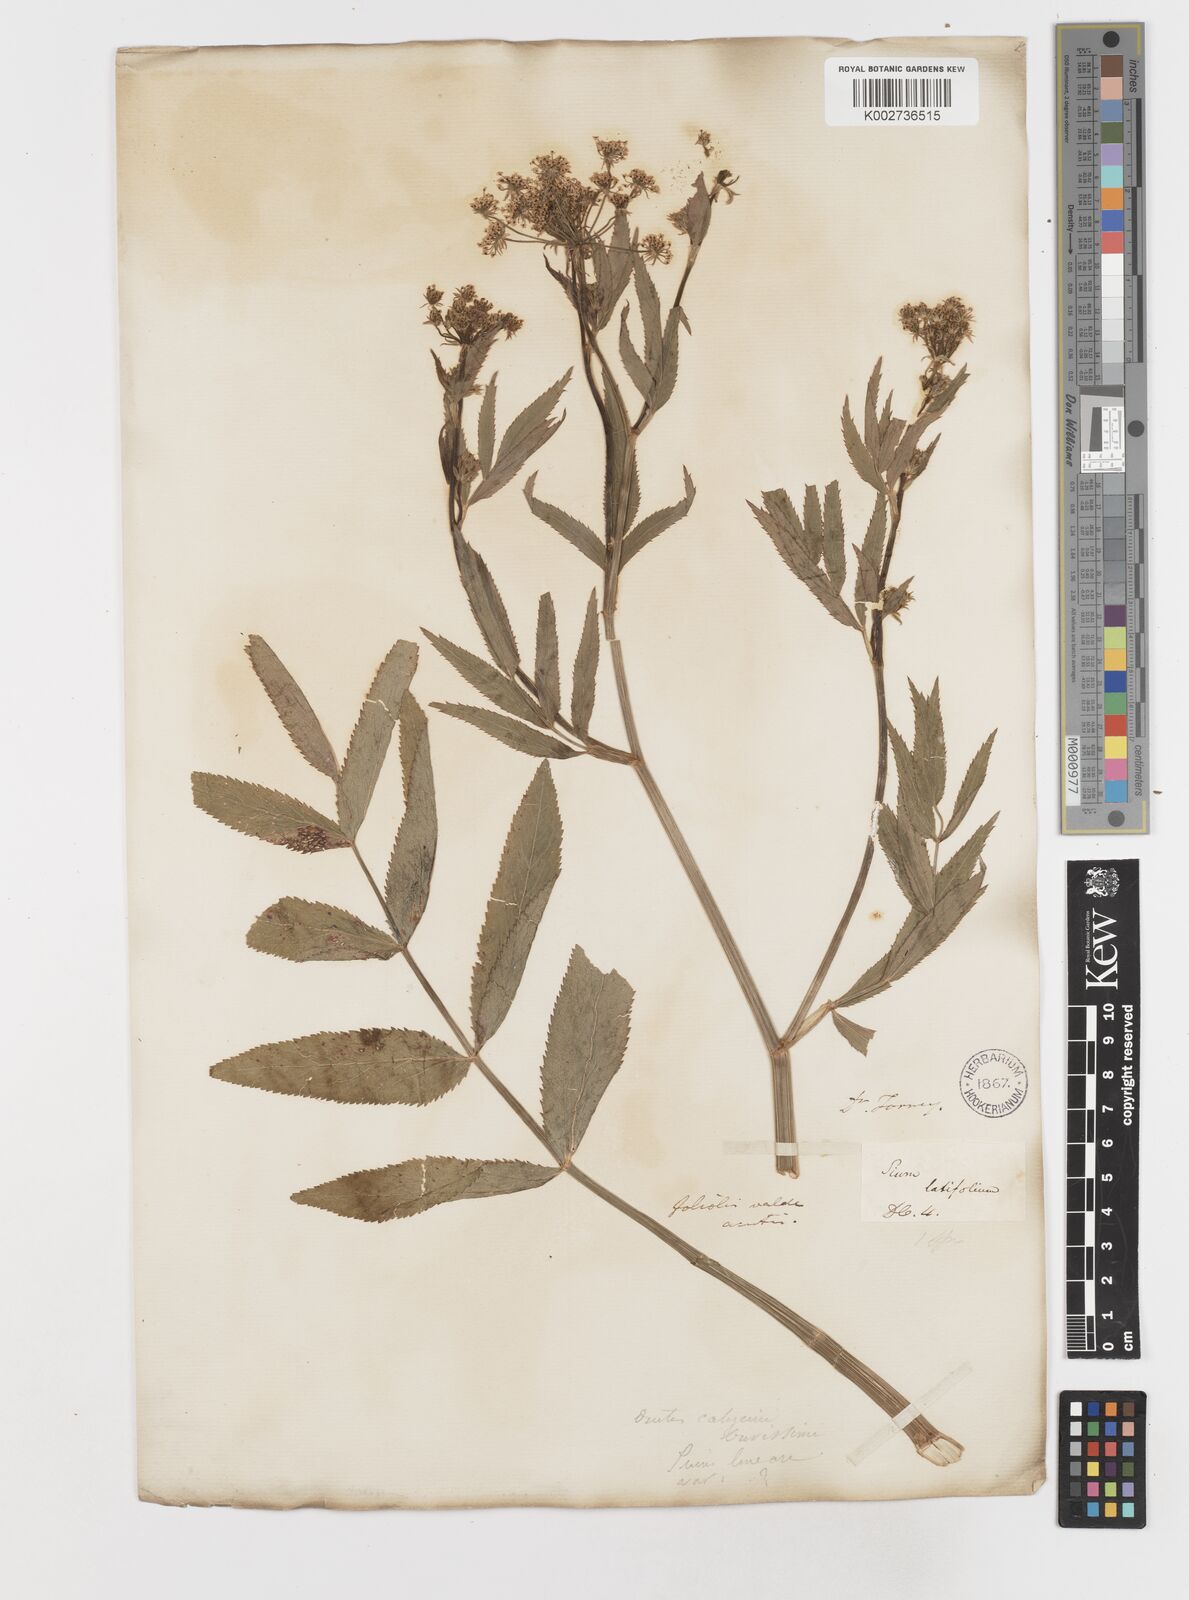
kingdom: Plantae
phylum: Tracheophyta
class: Magnoliopsida
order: Apiales
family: Apiaceae
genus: Sium
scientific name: Sium suave
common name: Hemlock water-parsnip
